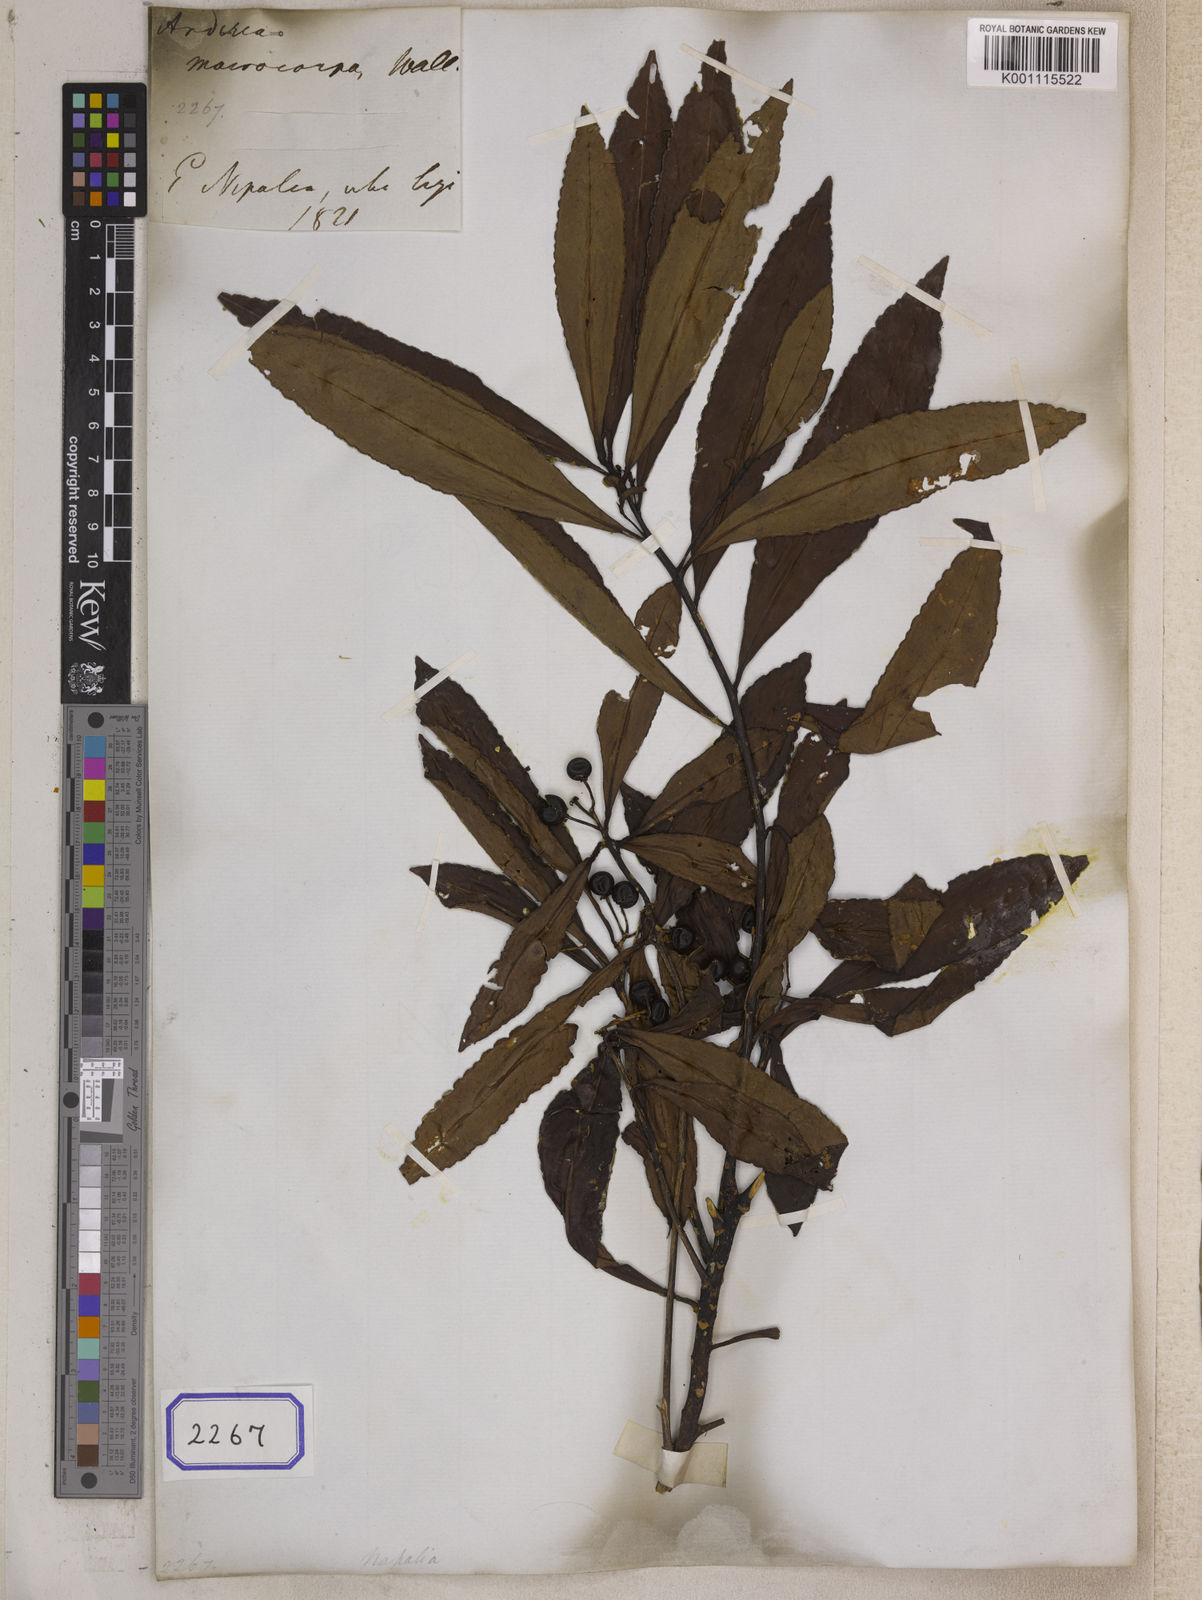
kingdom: Plantae
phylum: Tracheophyta
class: Magnoliopsida
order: Ericales
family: Primulaceae
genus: Ardisia
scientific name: Ardisia macrocarpa
